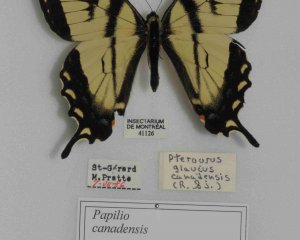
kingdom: Animalia
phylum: Arthropoda
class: Insecta
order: Lepidoptera
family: Papilionidae
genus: Pterourus
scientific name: Pterourus canadensis
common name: Canadian Tiger Swallowtail
